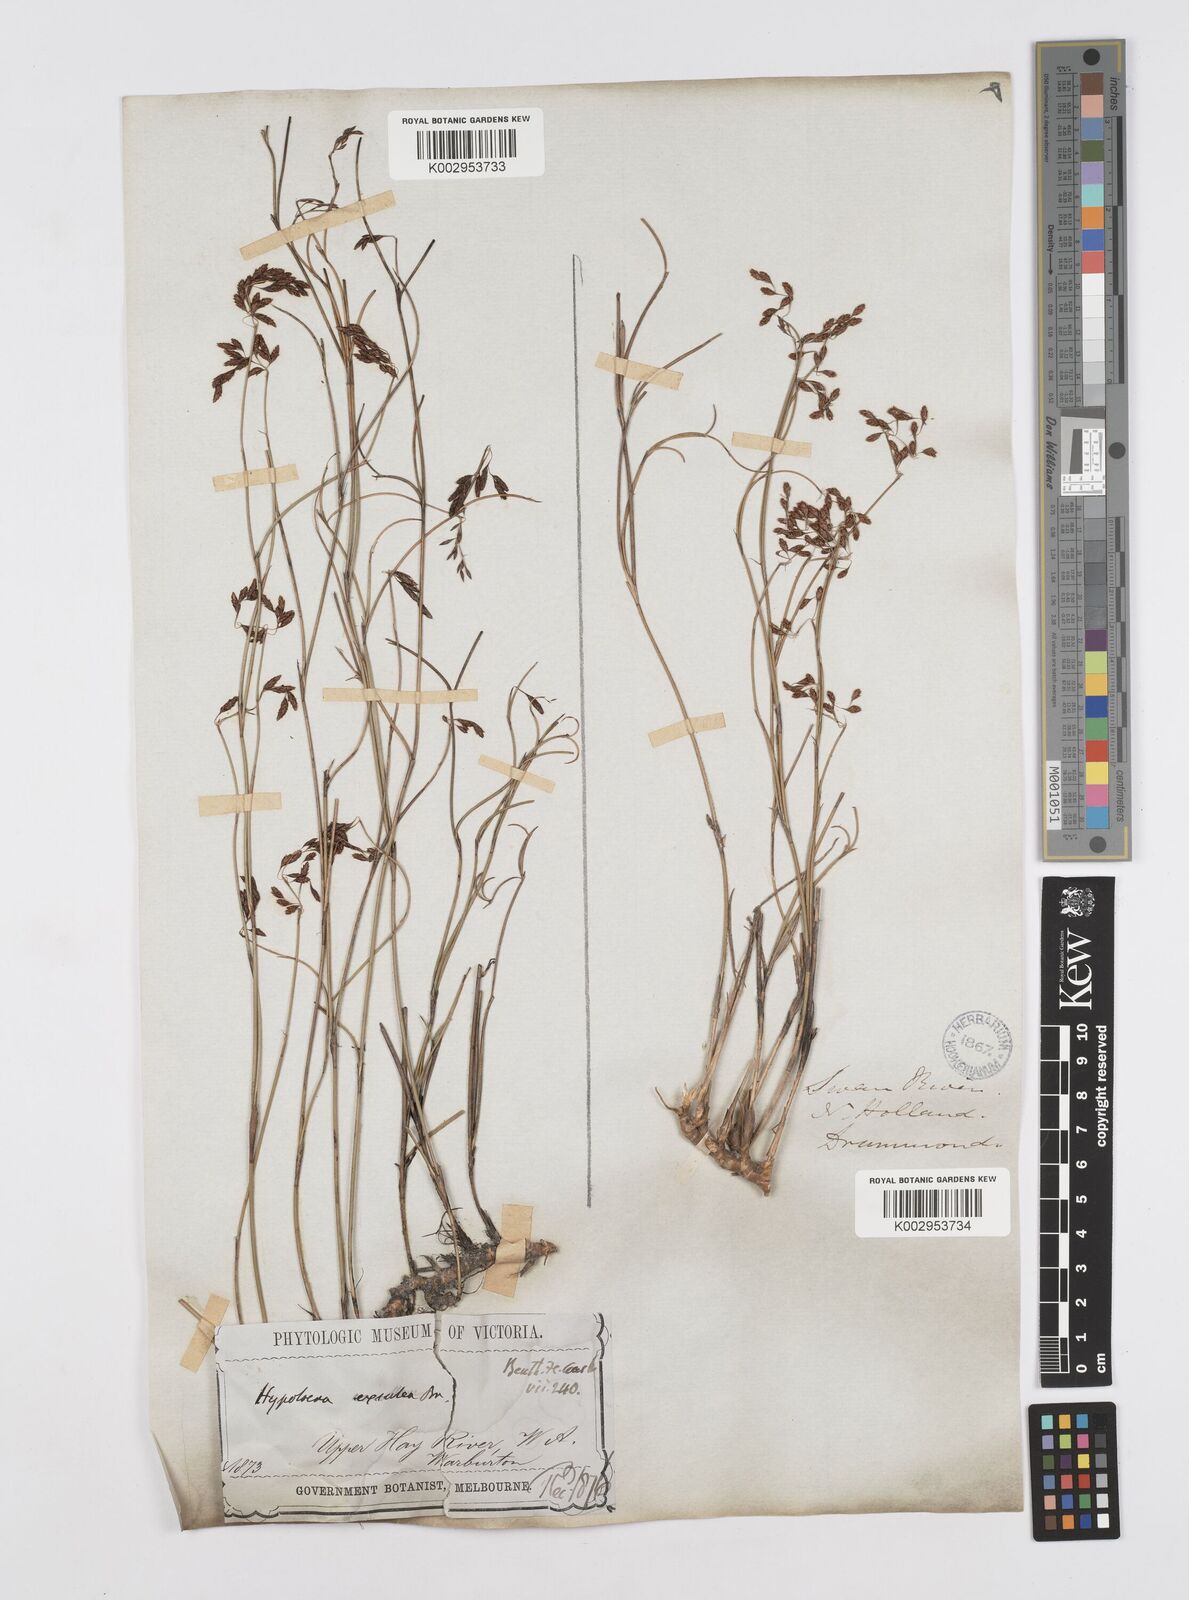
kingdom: Plantae
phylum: Tracheophyta
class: Liliopsida
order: Poales
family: Restionaceae
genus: Hypolaena
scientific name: Hypolaena exsulca
